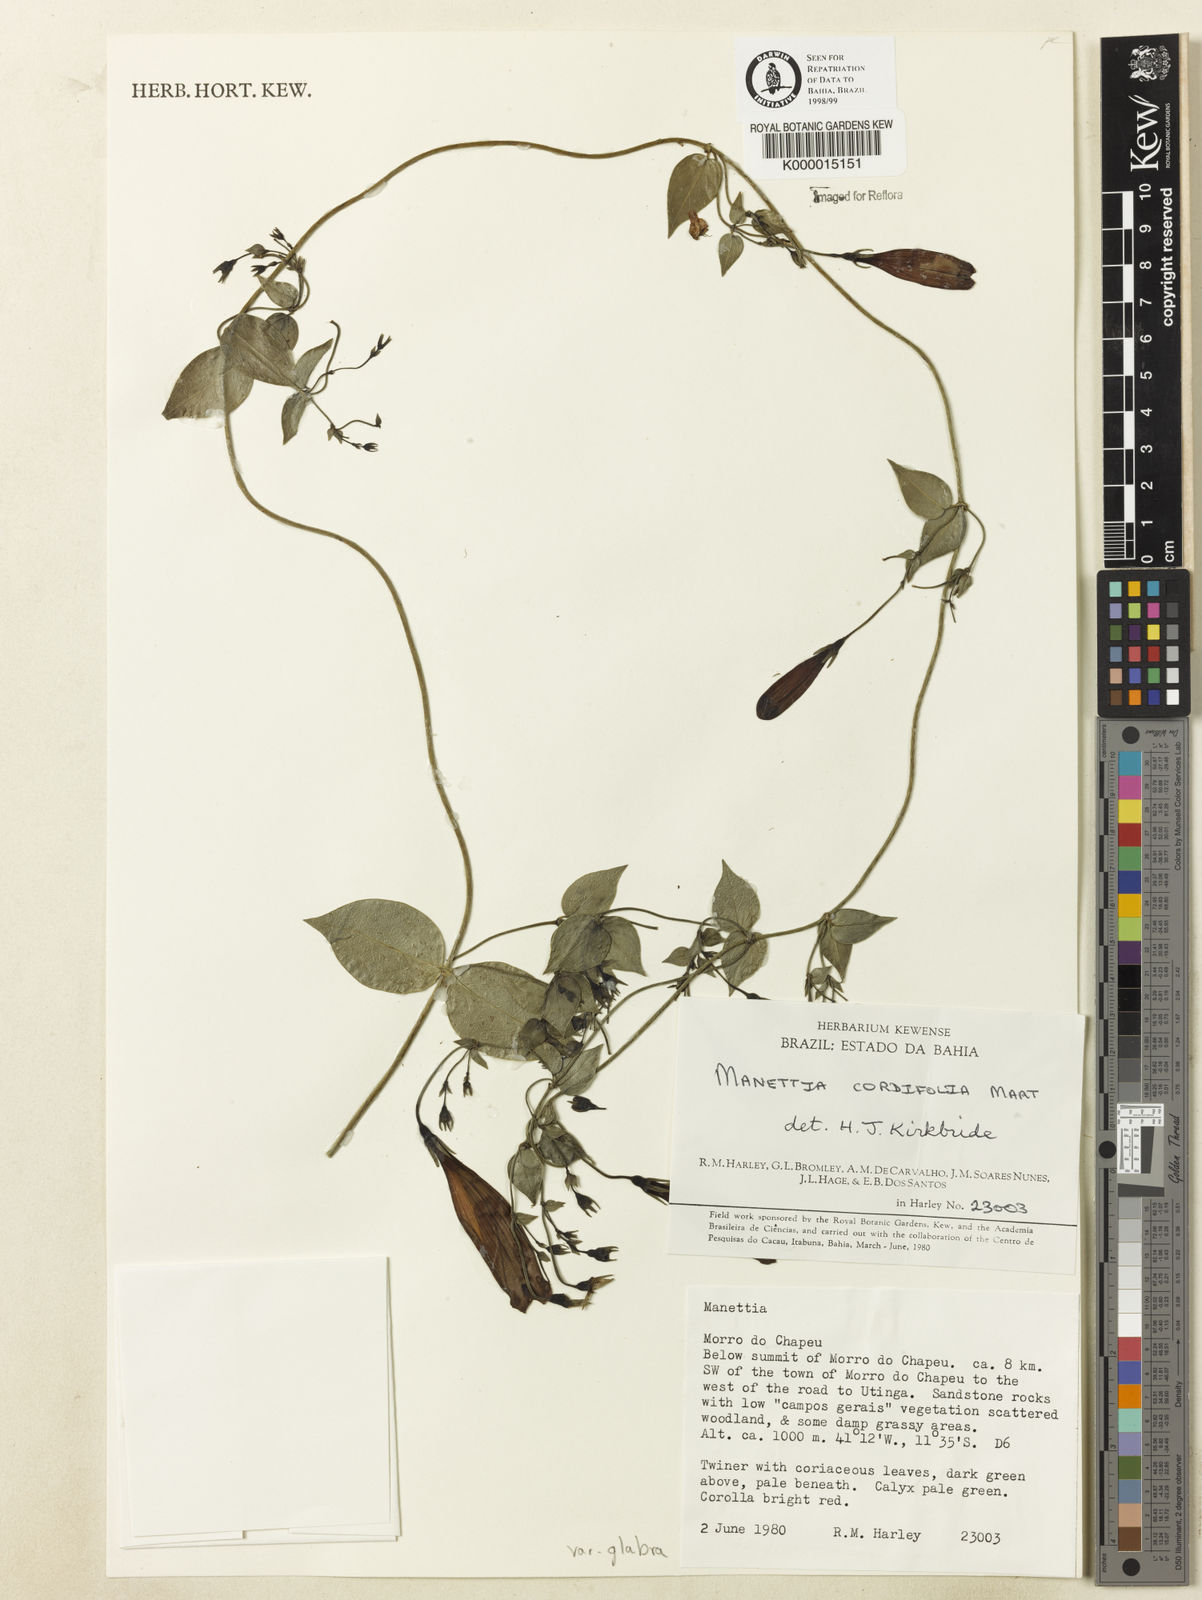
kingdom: Plantae
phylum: Tracheophyta
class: Magnoliopsida
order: Gentianales
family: Rubiaceae
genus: Manettia
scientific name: Manettia cordifolia
